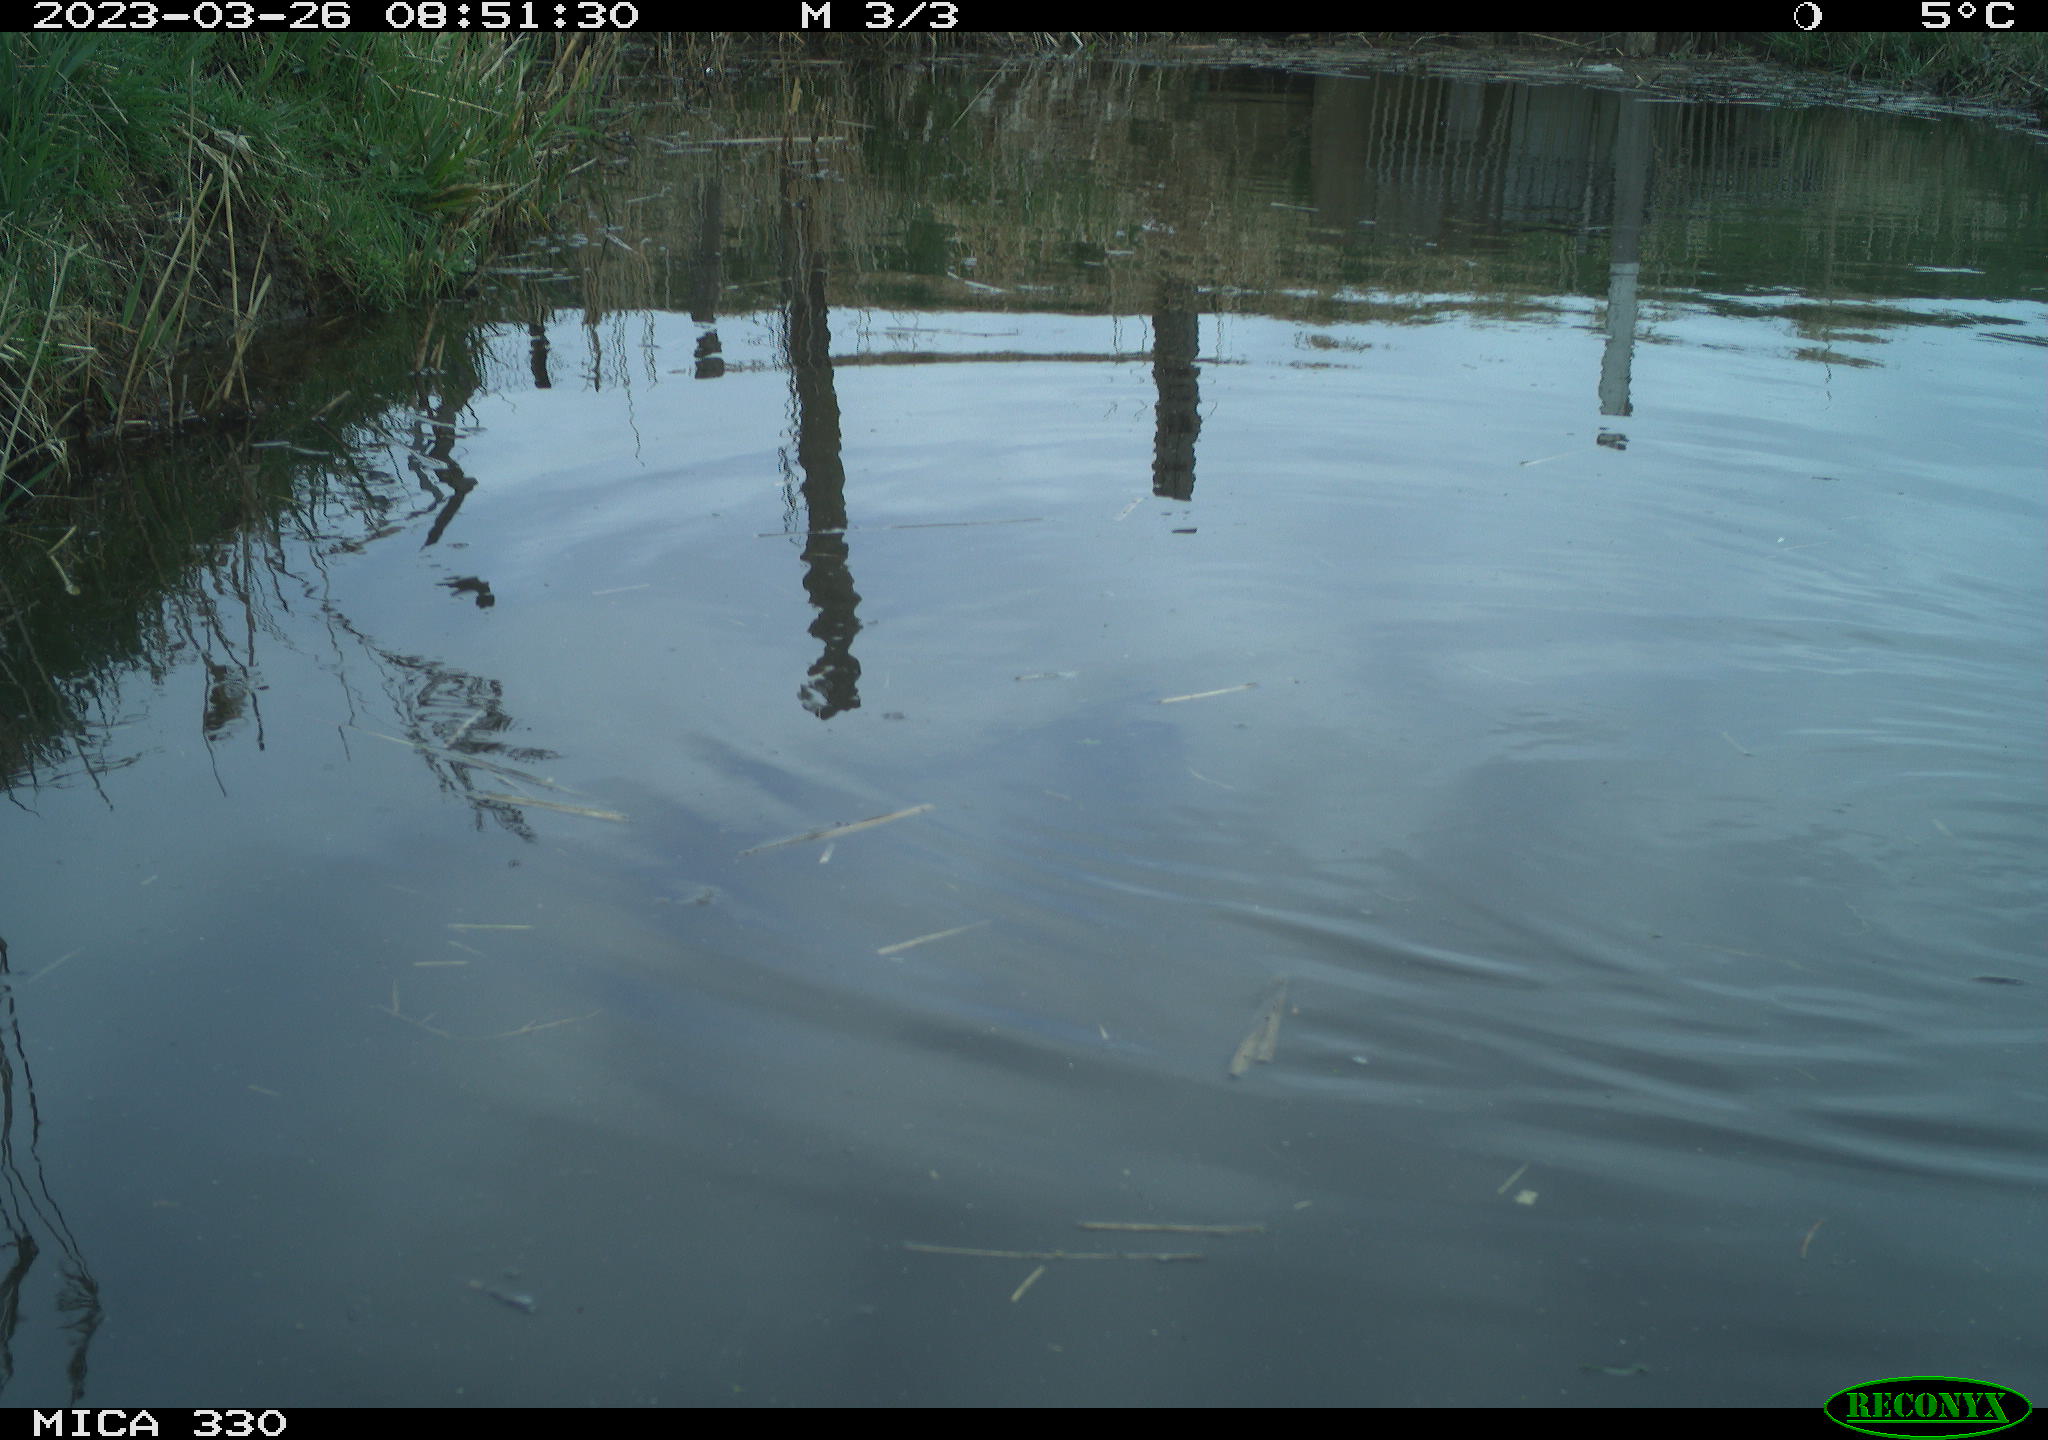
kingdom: Animalia
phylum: Chordata
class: Aves
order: Anseriformes
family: Anatidae
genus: Anas
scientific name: Anas
